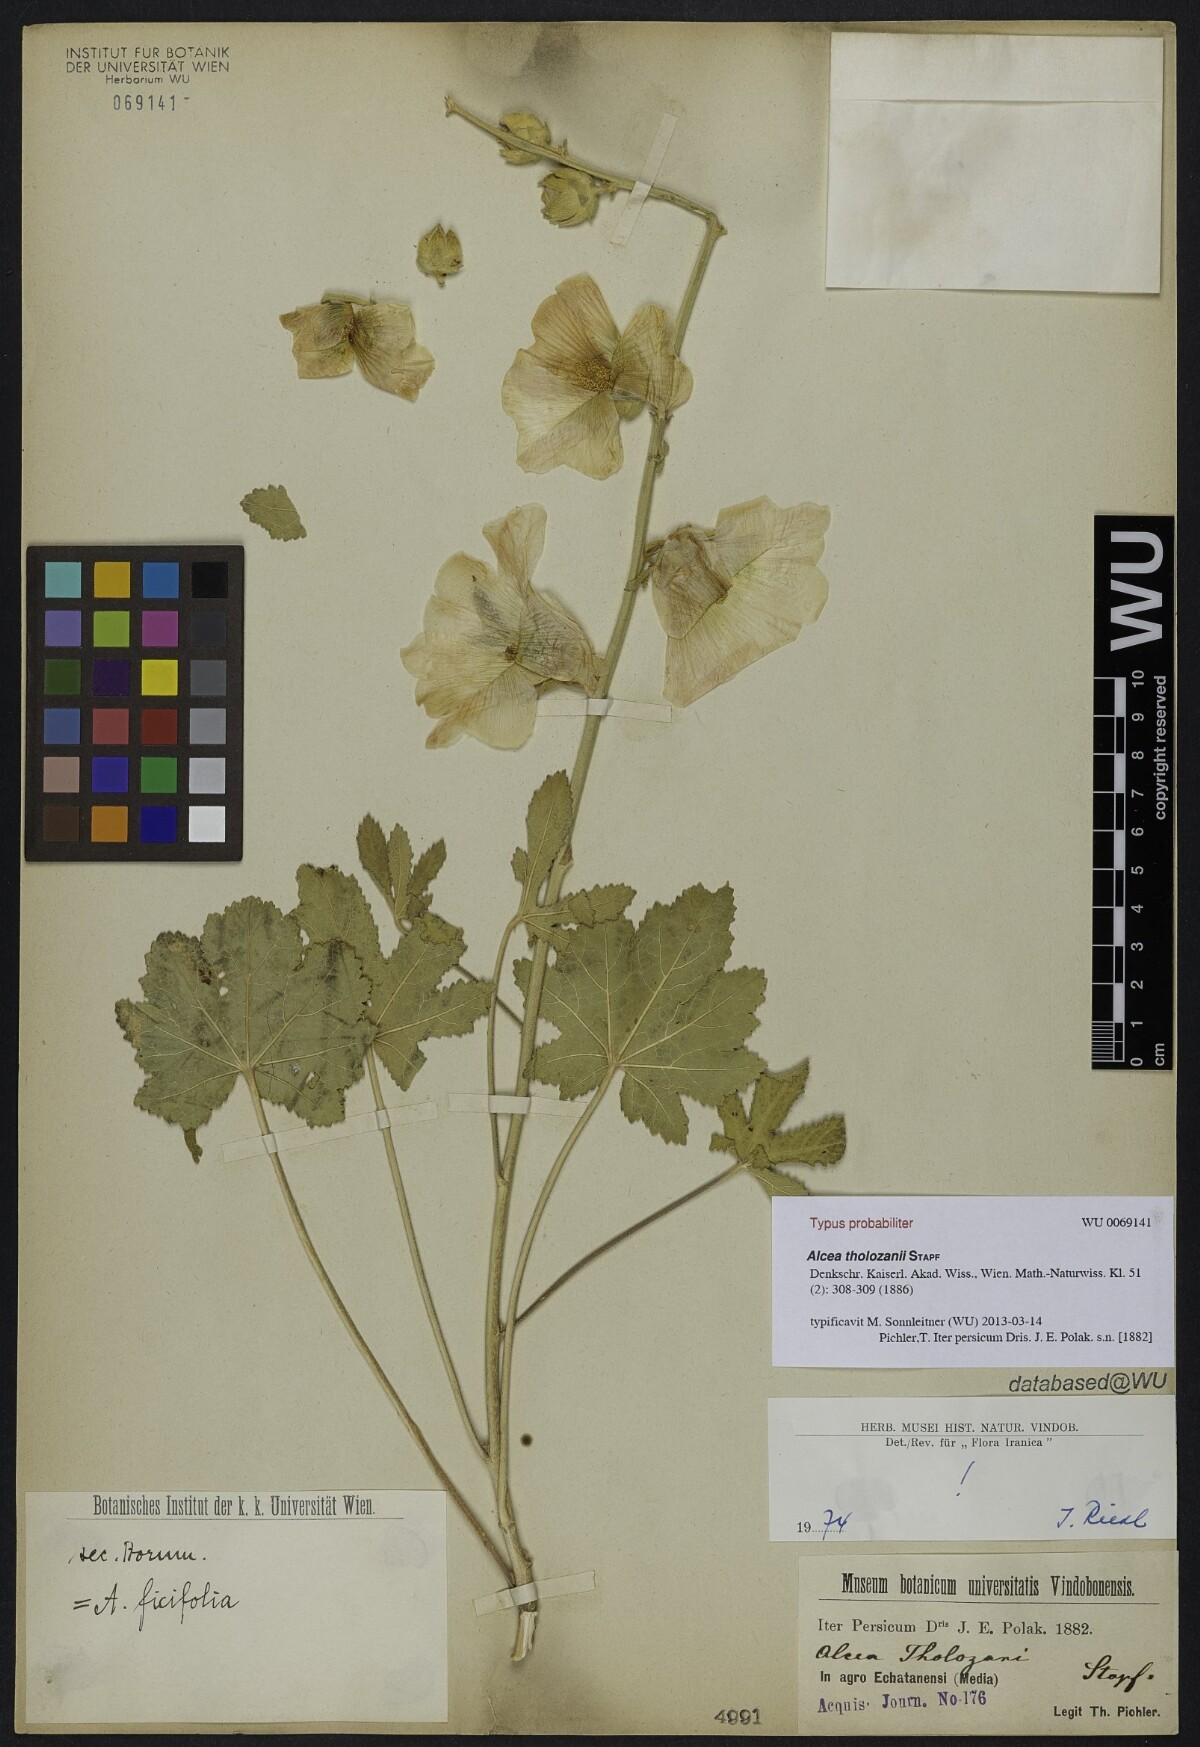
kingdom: Plantae
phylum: Tracheophyta
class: Magnoliopsida
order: Malvales
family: Malvaceae
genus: Alcea
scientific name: Alcea tholozani
